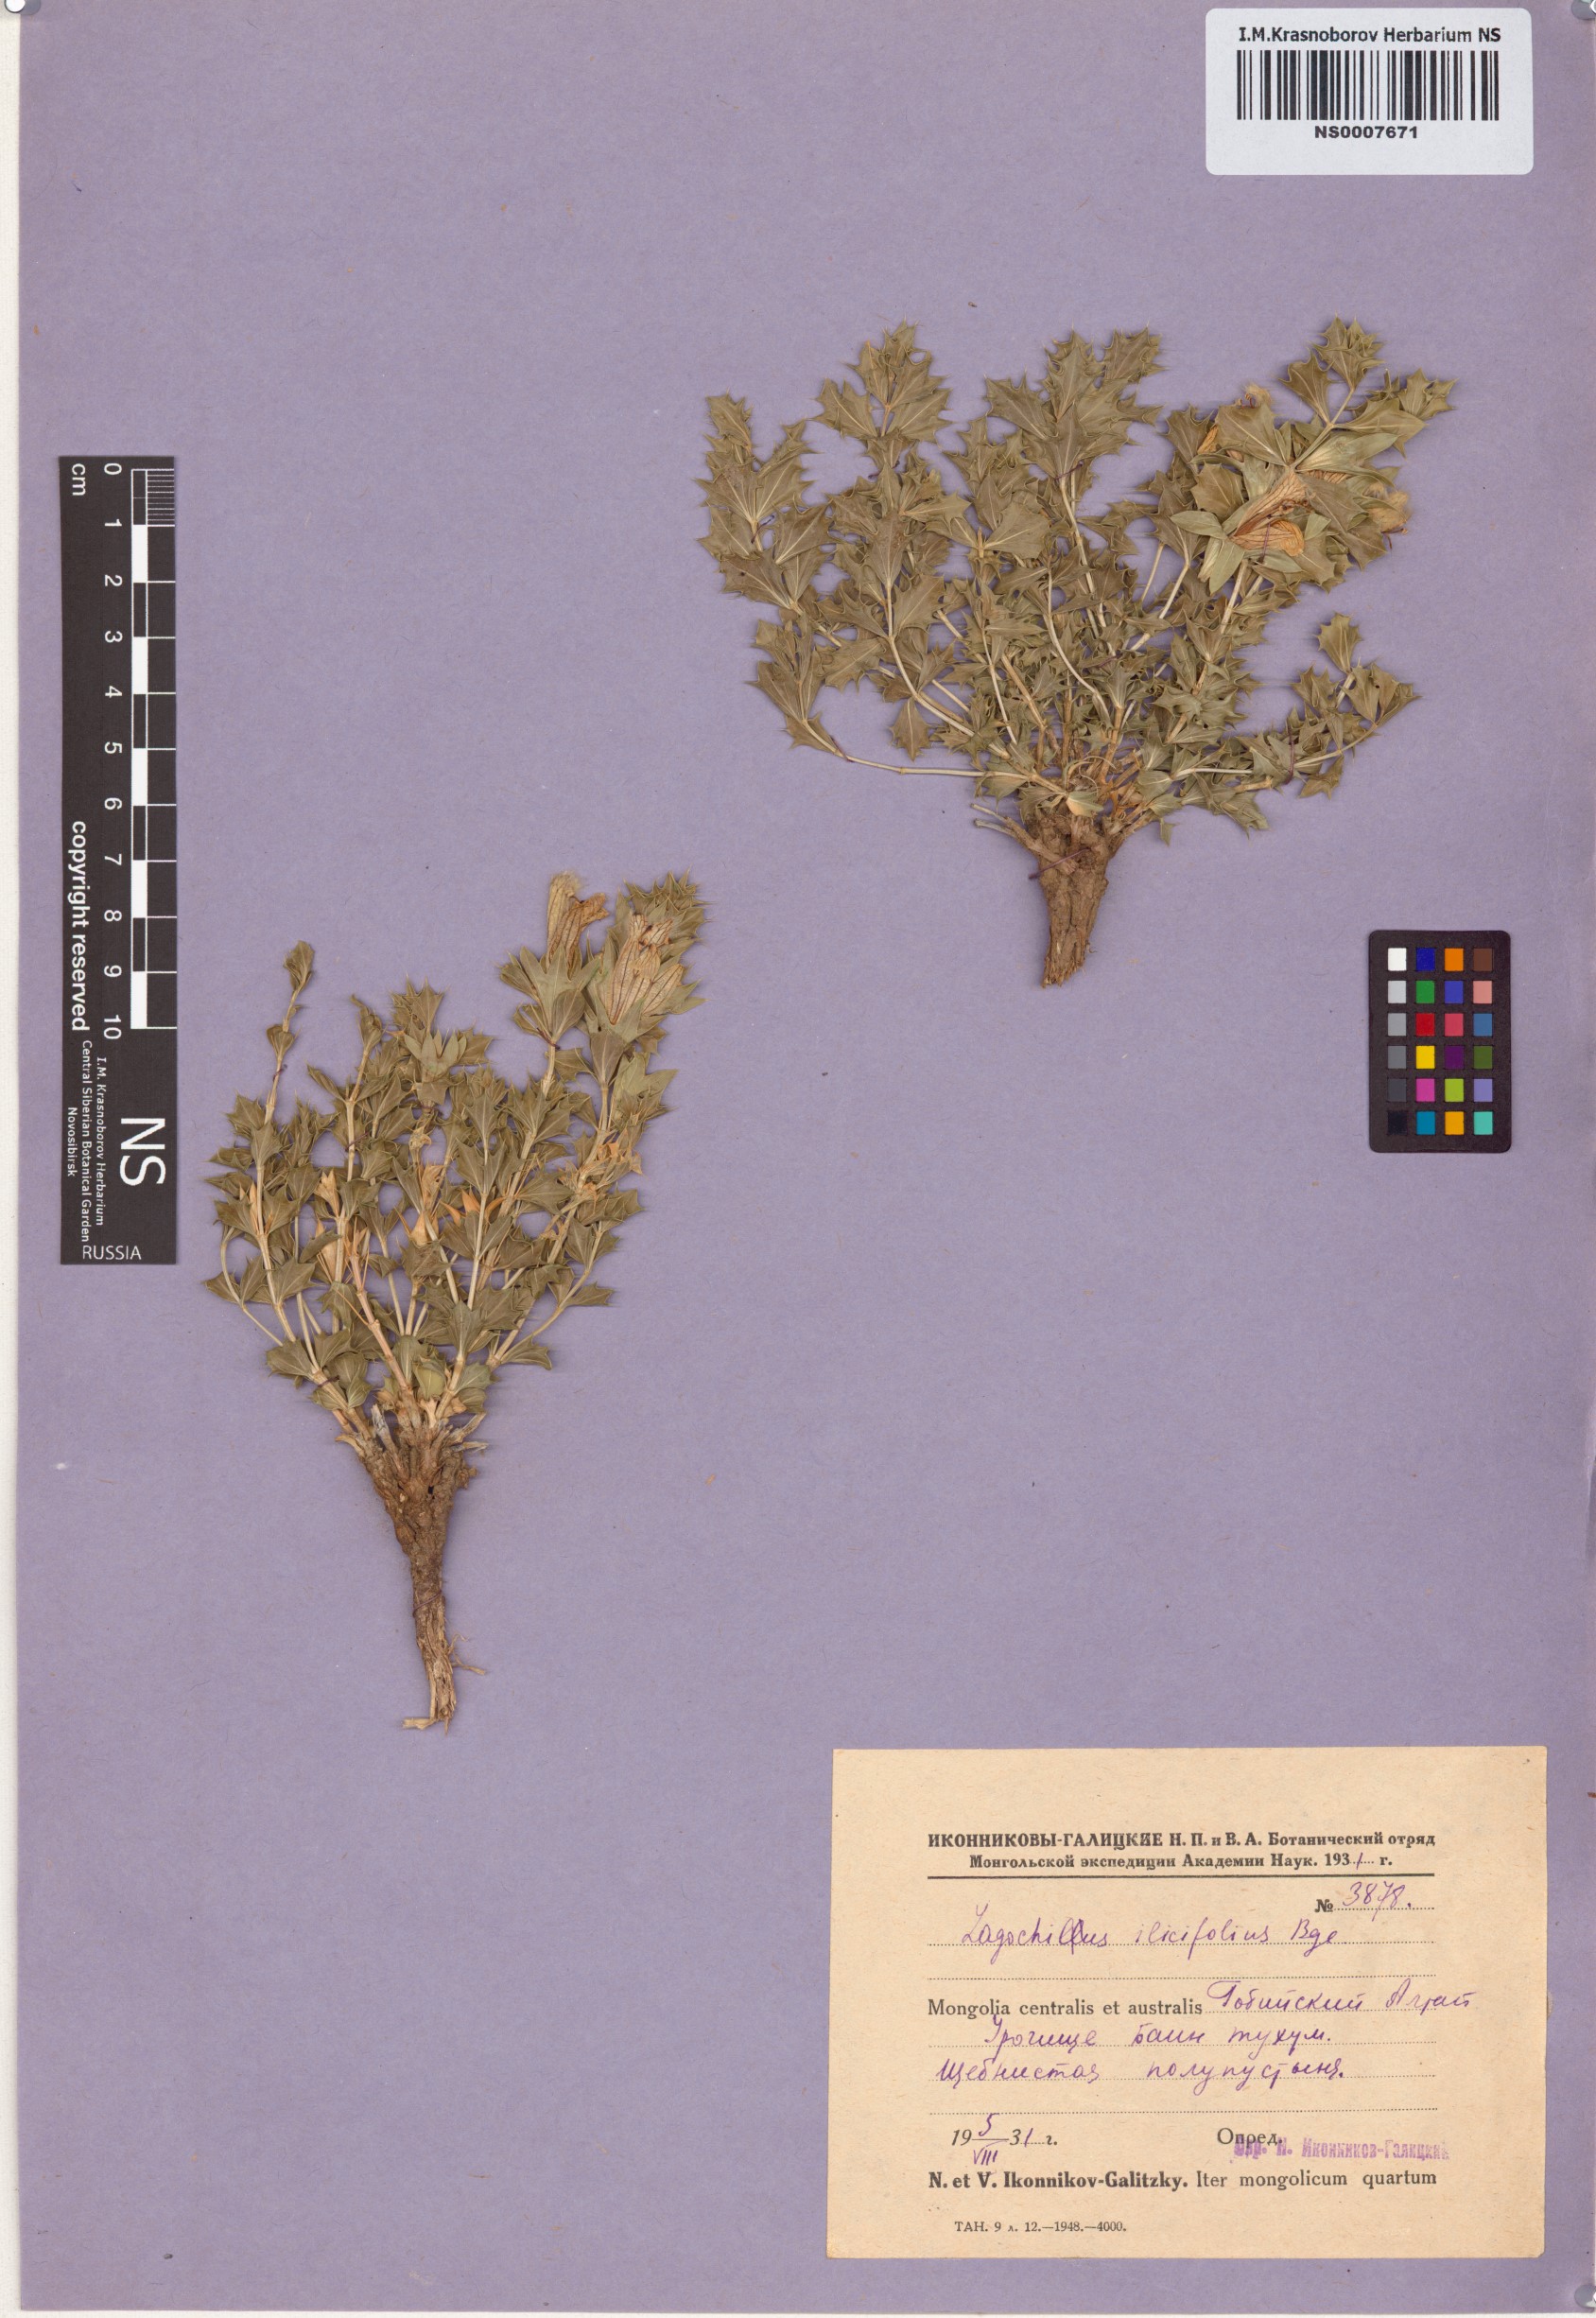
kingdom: Plantae
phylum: Tracheophyta
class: Magnoliopsida
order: Lamiales
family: Lamiaceae
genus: Lagochilus
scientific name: Lagochilus ilicifolius
